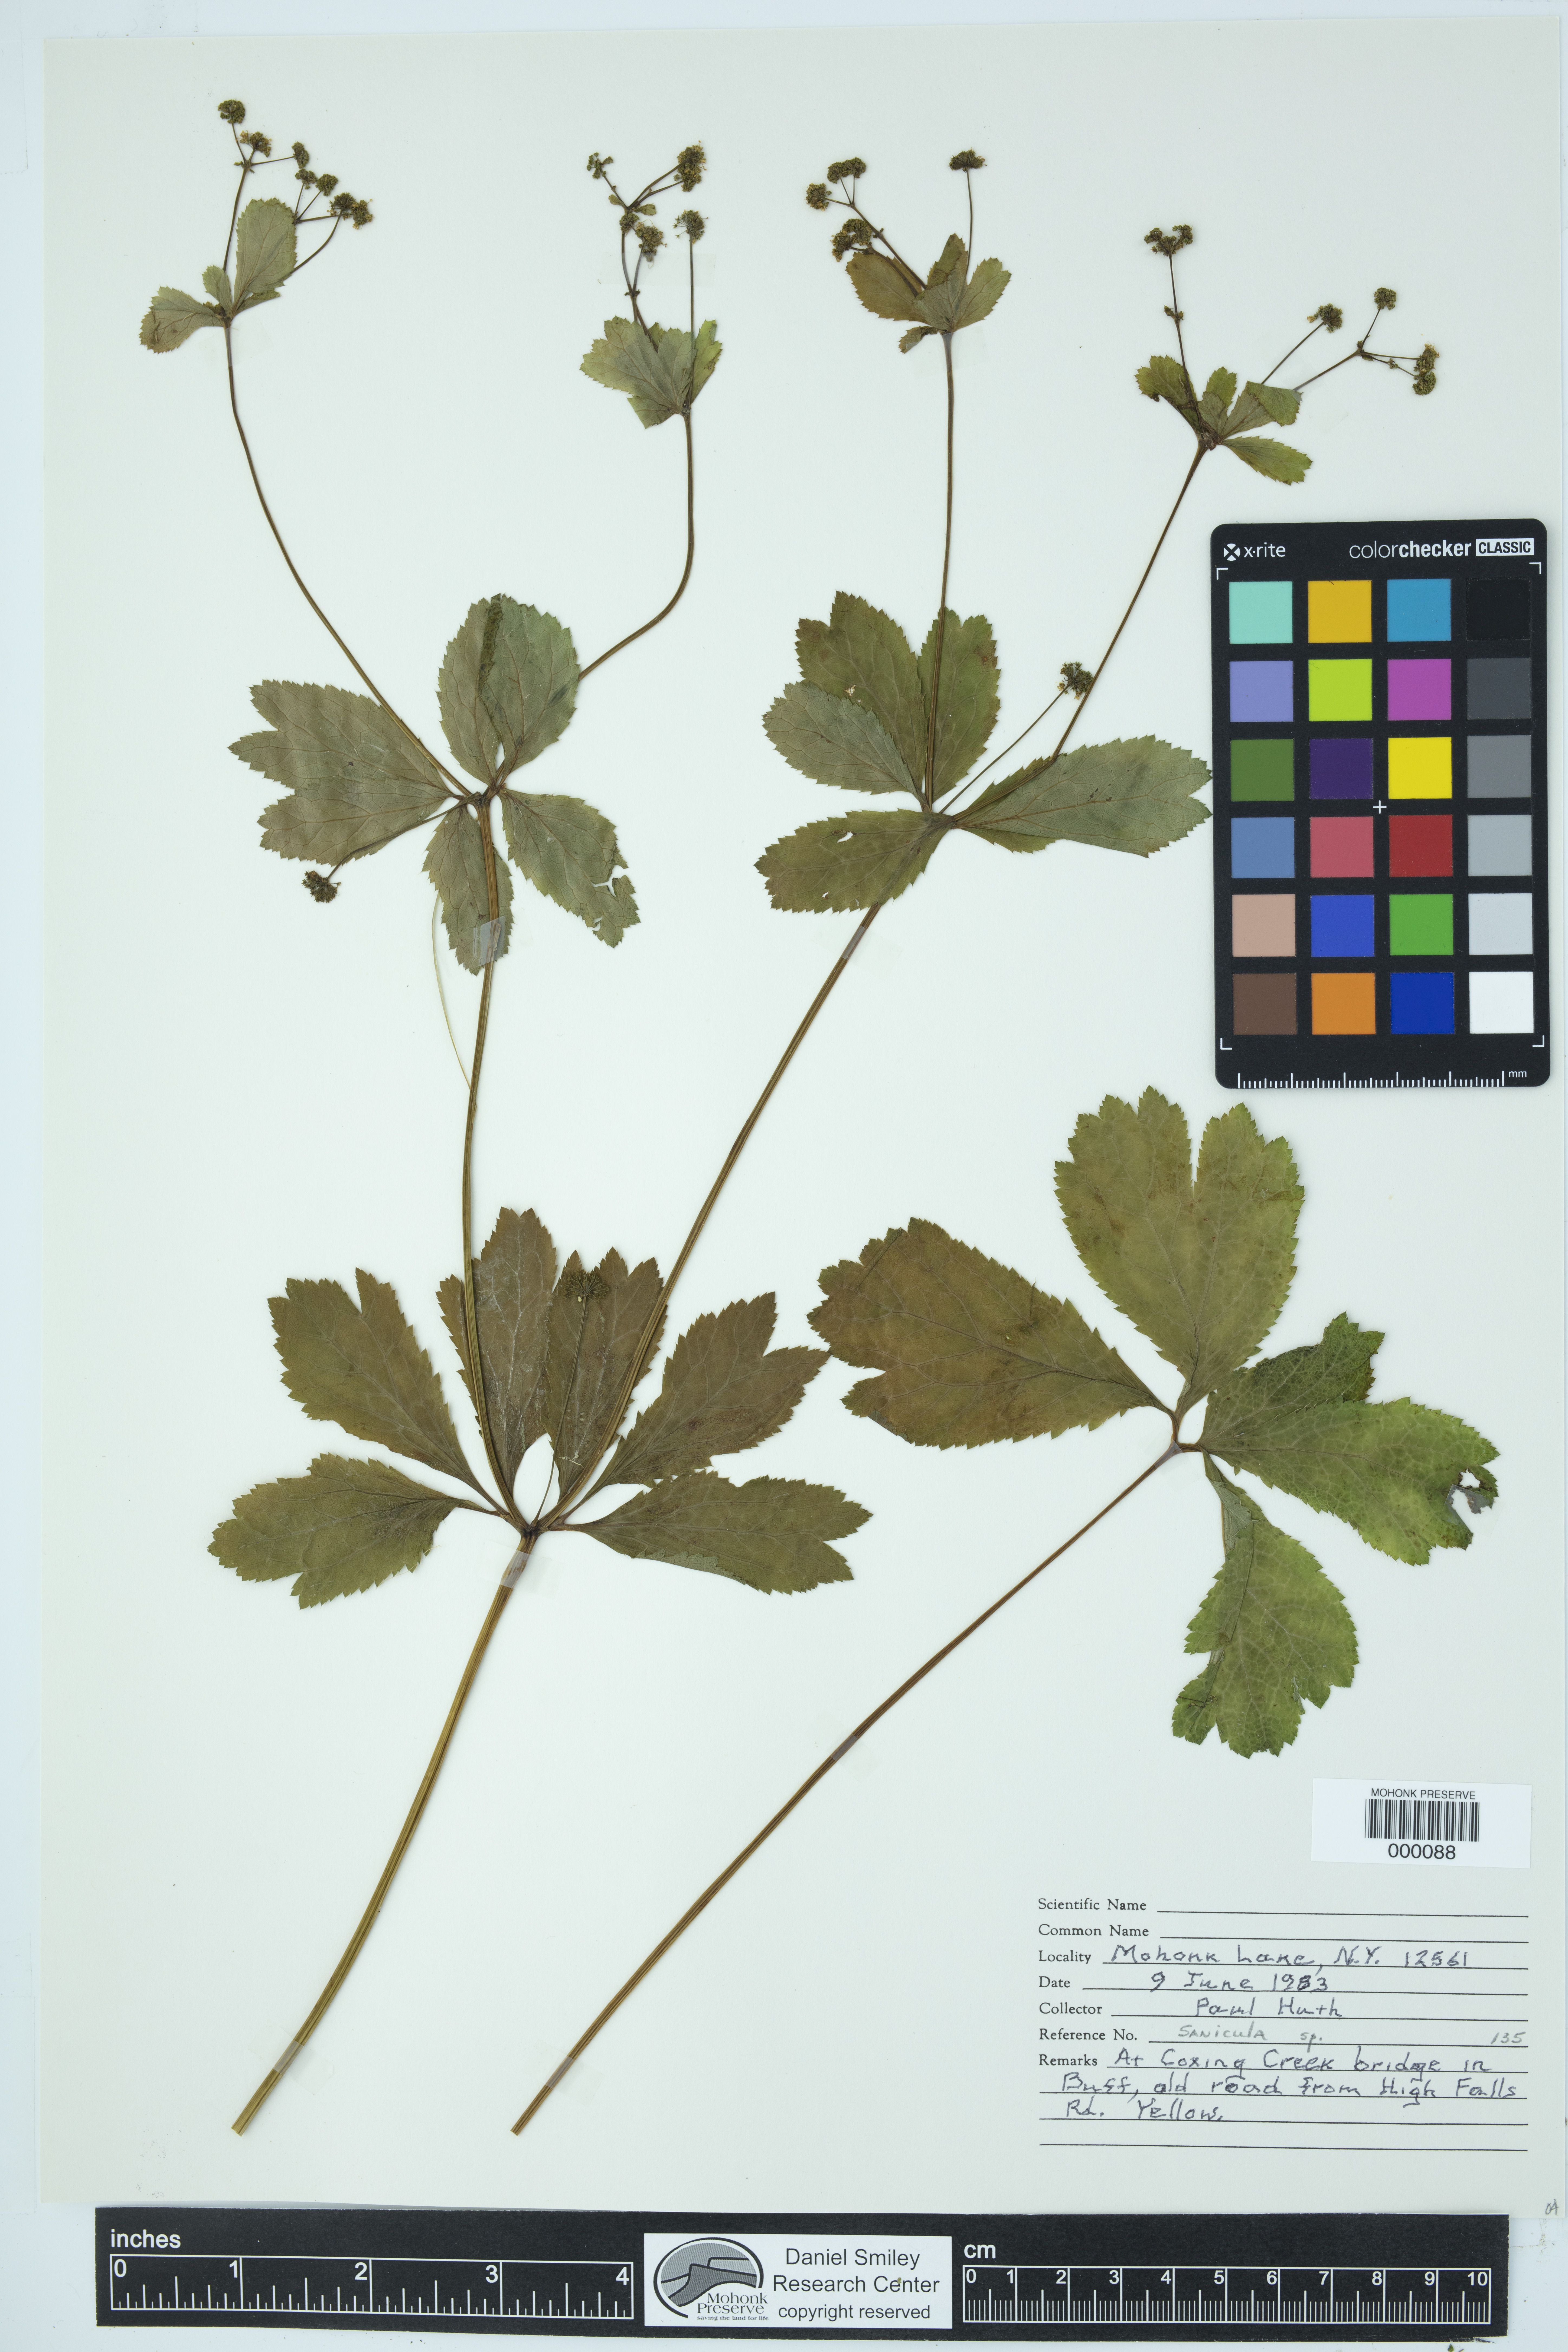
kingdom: Plantae
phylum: Tracheophyta
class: Magnoliopsida
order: Apiales
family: Apiaceae
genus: Sanicula
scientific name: Sanicula
